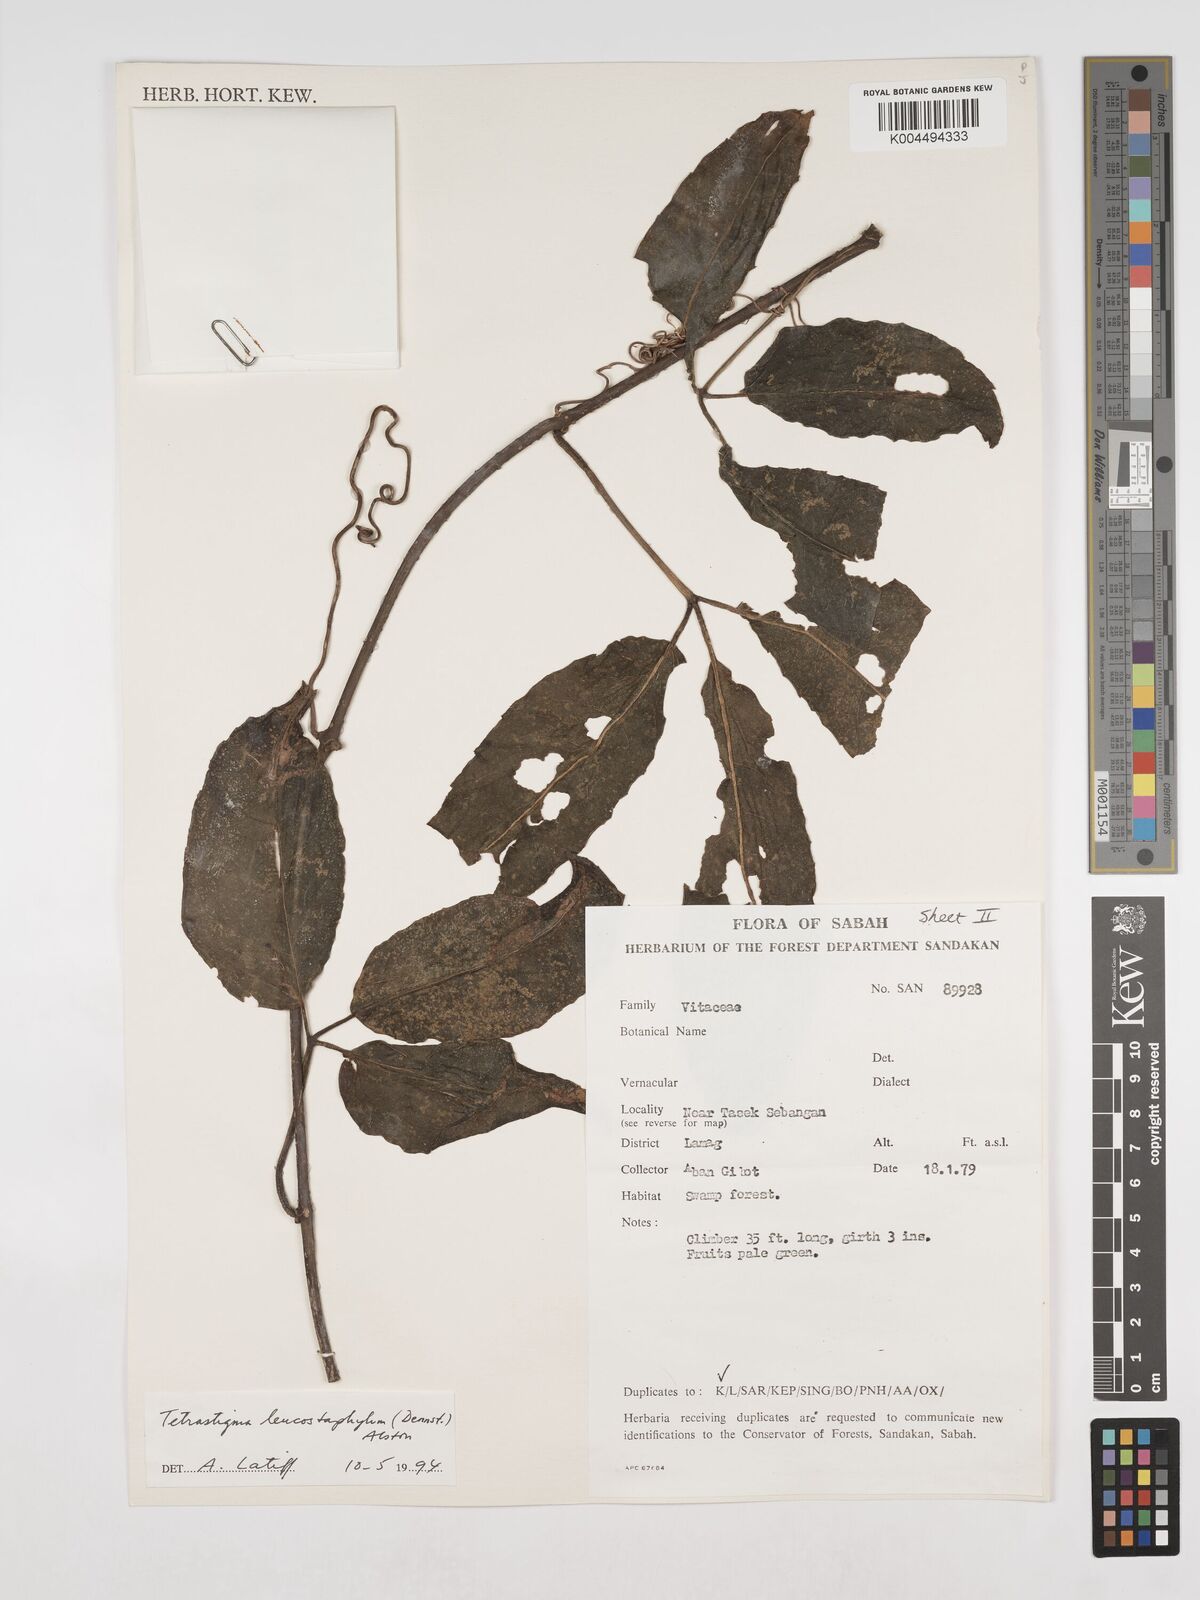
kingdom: Plantae
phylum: Tracheophyta
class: Magnoliopsida
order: Vitales
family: Vitaceae
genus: Tetrastigma
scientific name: Tetrastigma leucostaphylum
